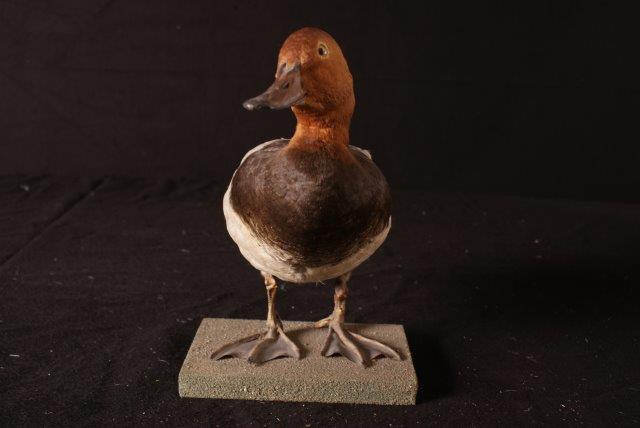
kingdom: Animalia
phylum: Chordata
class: Aves
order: Anseriformes
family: Anatidae
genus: Aythya
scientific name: Aythya ferina
